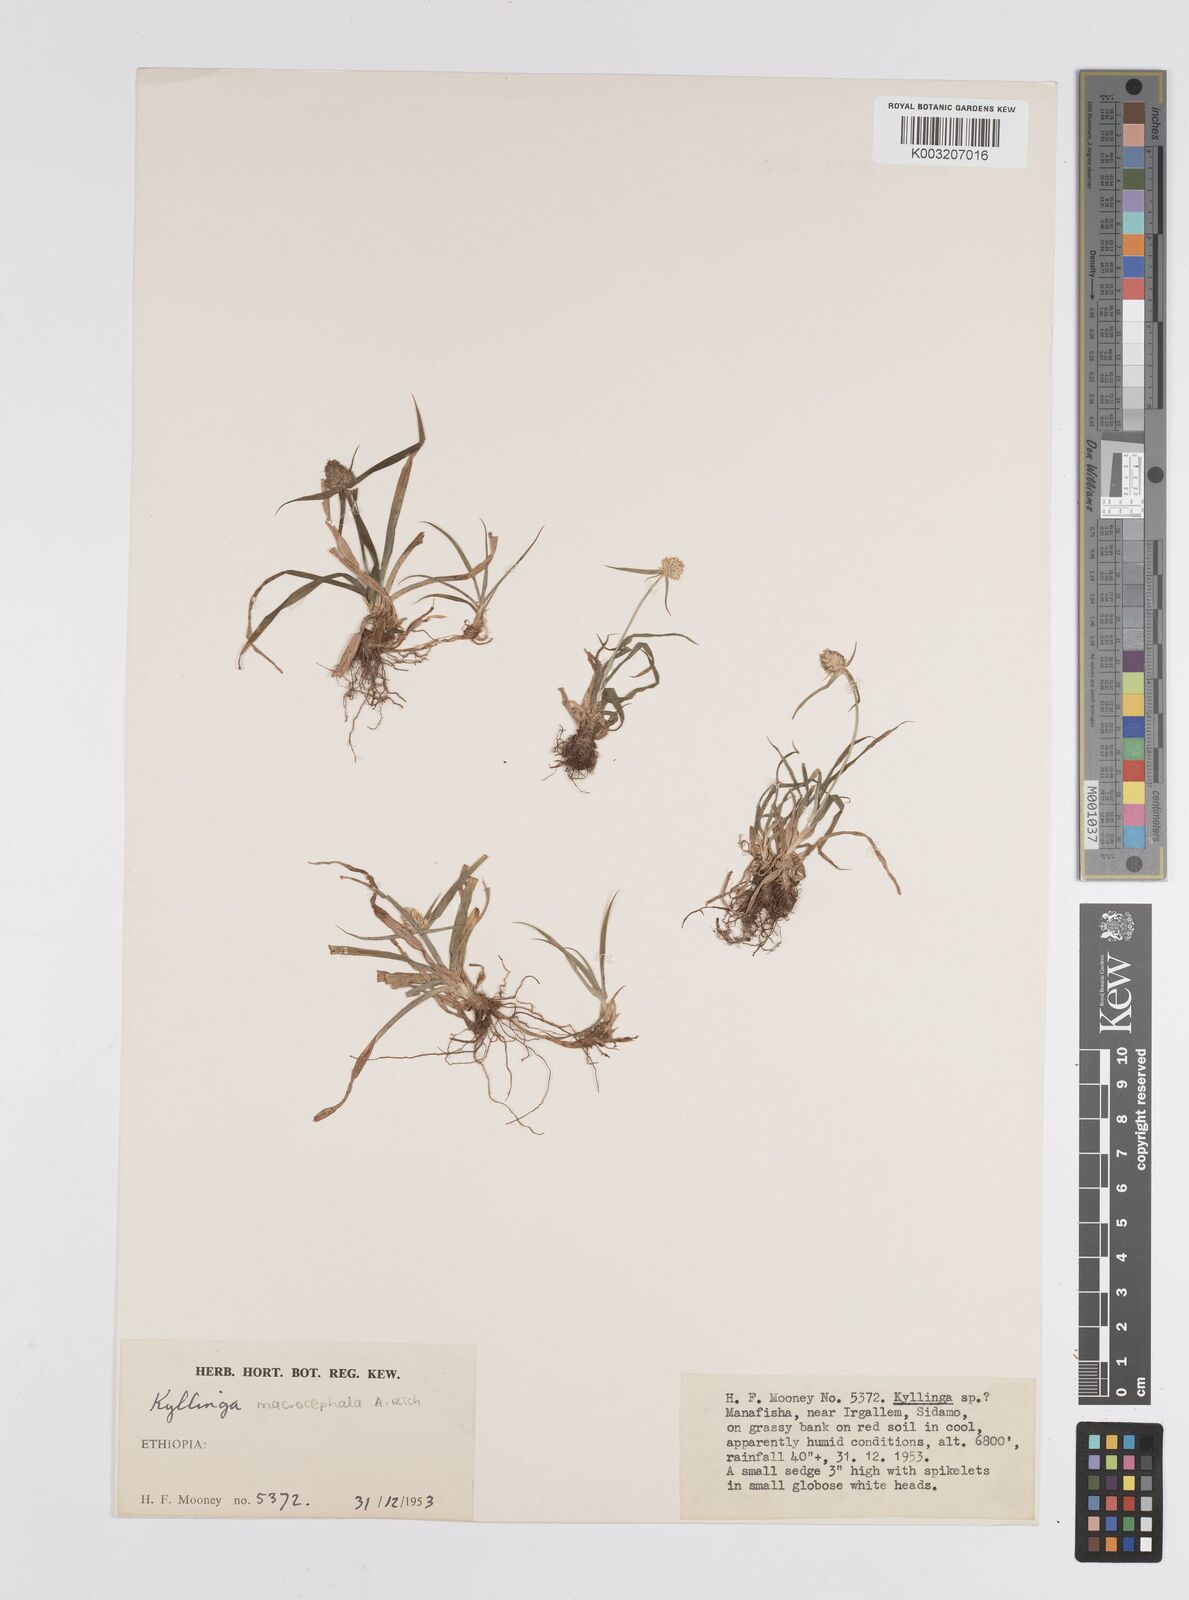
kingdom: Plantae
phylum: Tracheophyta
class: Liliopsida
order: Poales
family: Cyperaceae
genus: Cyperus
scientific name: Cyperus
